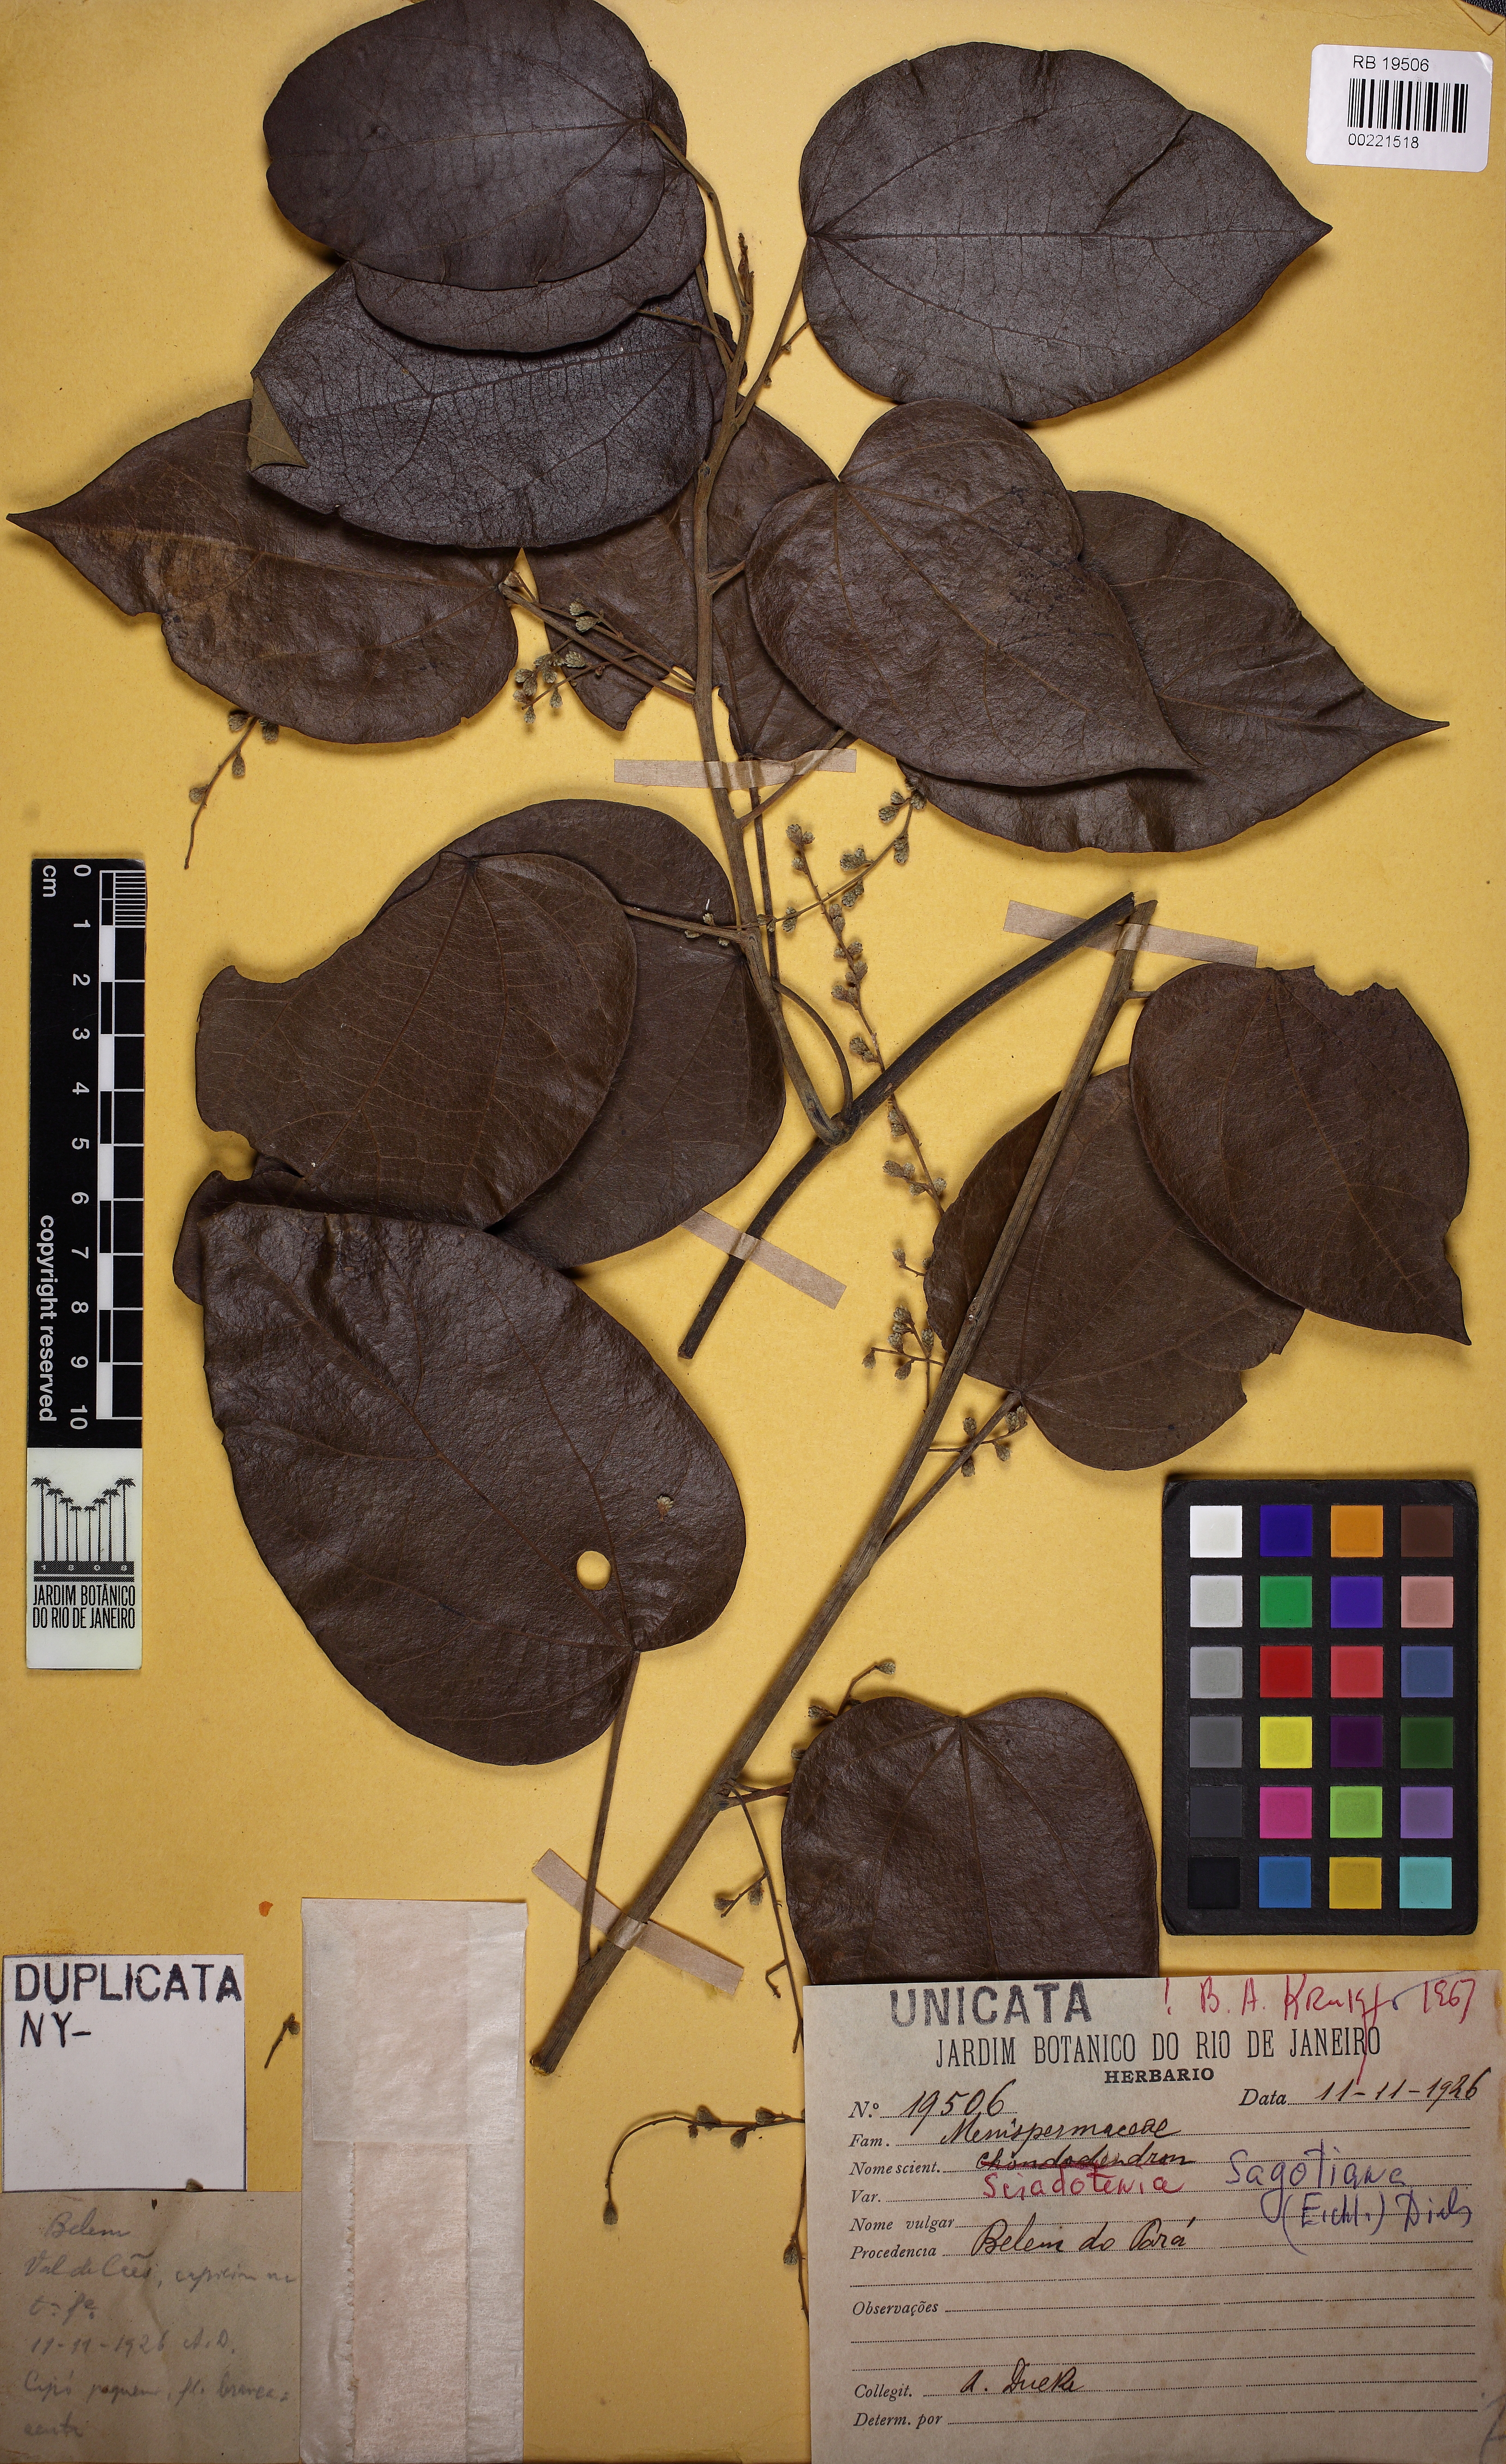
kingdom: Plantae
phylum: Tracheophyta
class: Magnoliopsida
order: Ranunculales
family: Menispermaceae
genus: Sciadotenia
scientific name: Sciadotenia sagotiana
